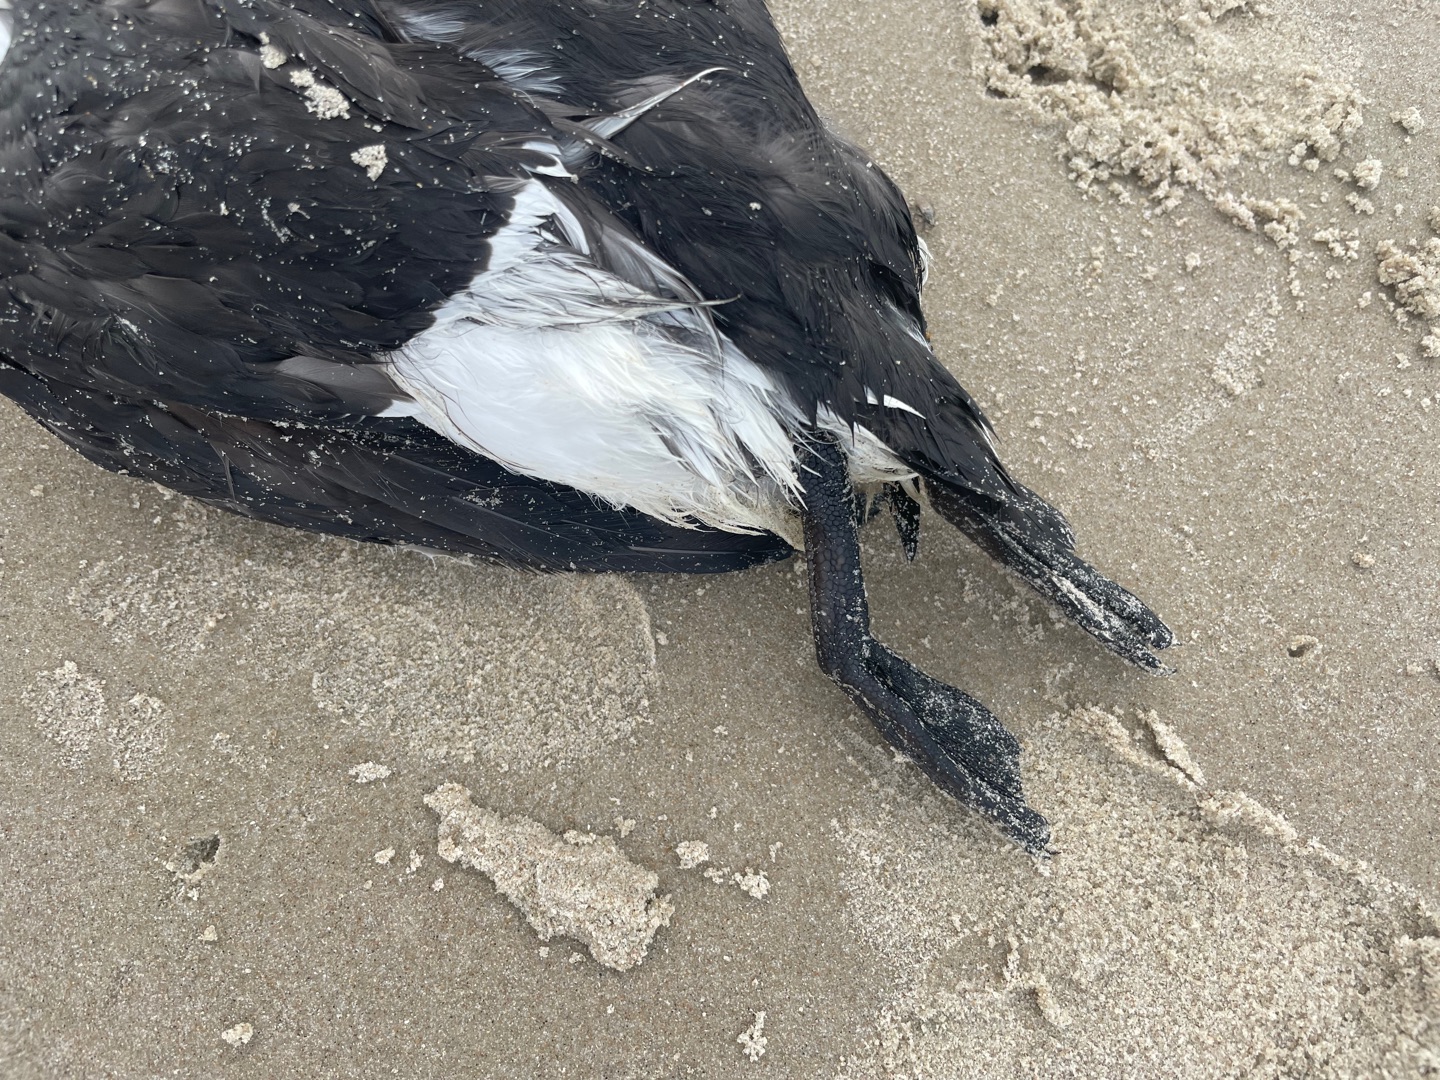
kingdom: Animalia
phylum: Chordata
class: Aves
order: Charadriiformes
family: Alcidae
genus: Uria
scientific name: Uria aalge
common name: Lomvie
